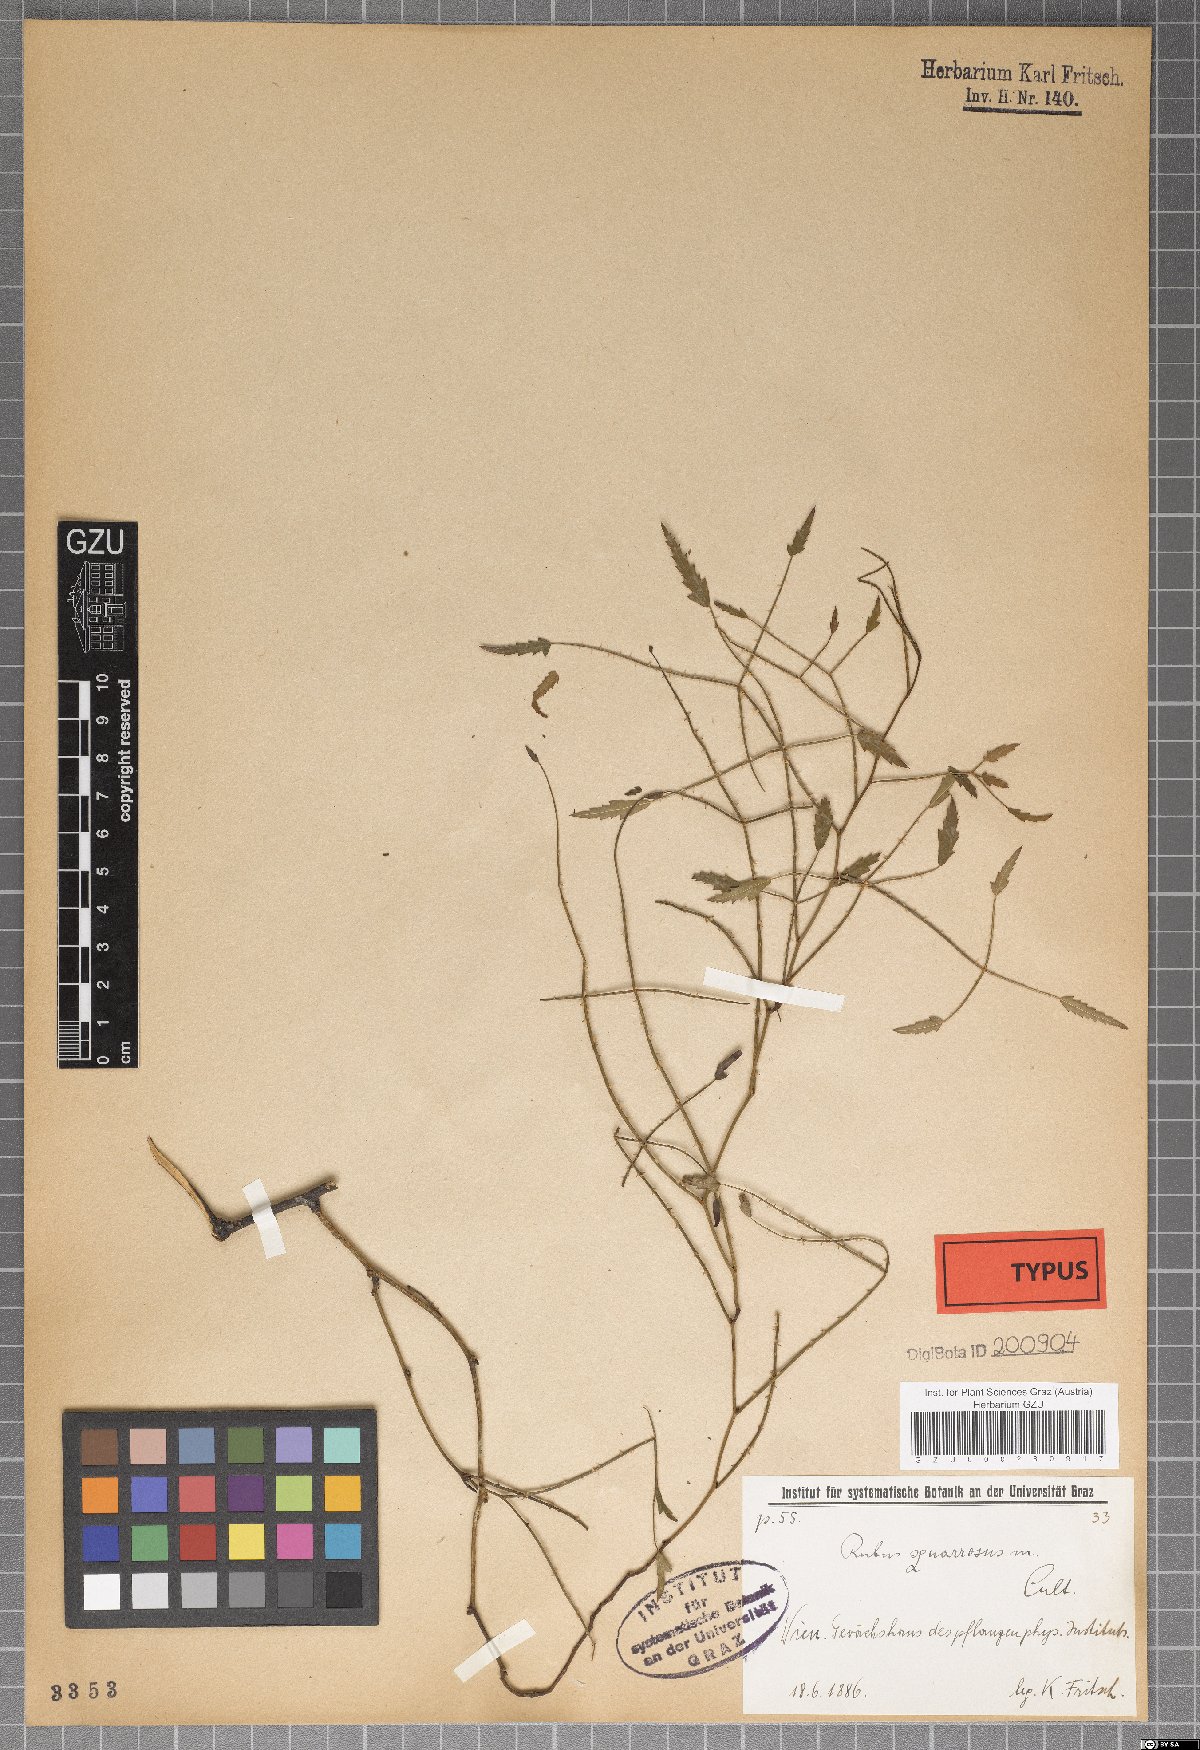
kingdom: Plantae
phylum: Tracheophyta
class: Magnoliopsida
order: Rosales
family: Rosaceae
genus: Rubus
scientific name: Rubus squarrosus
